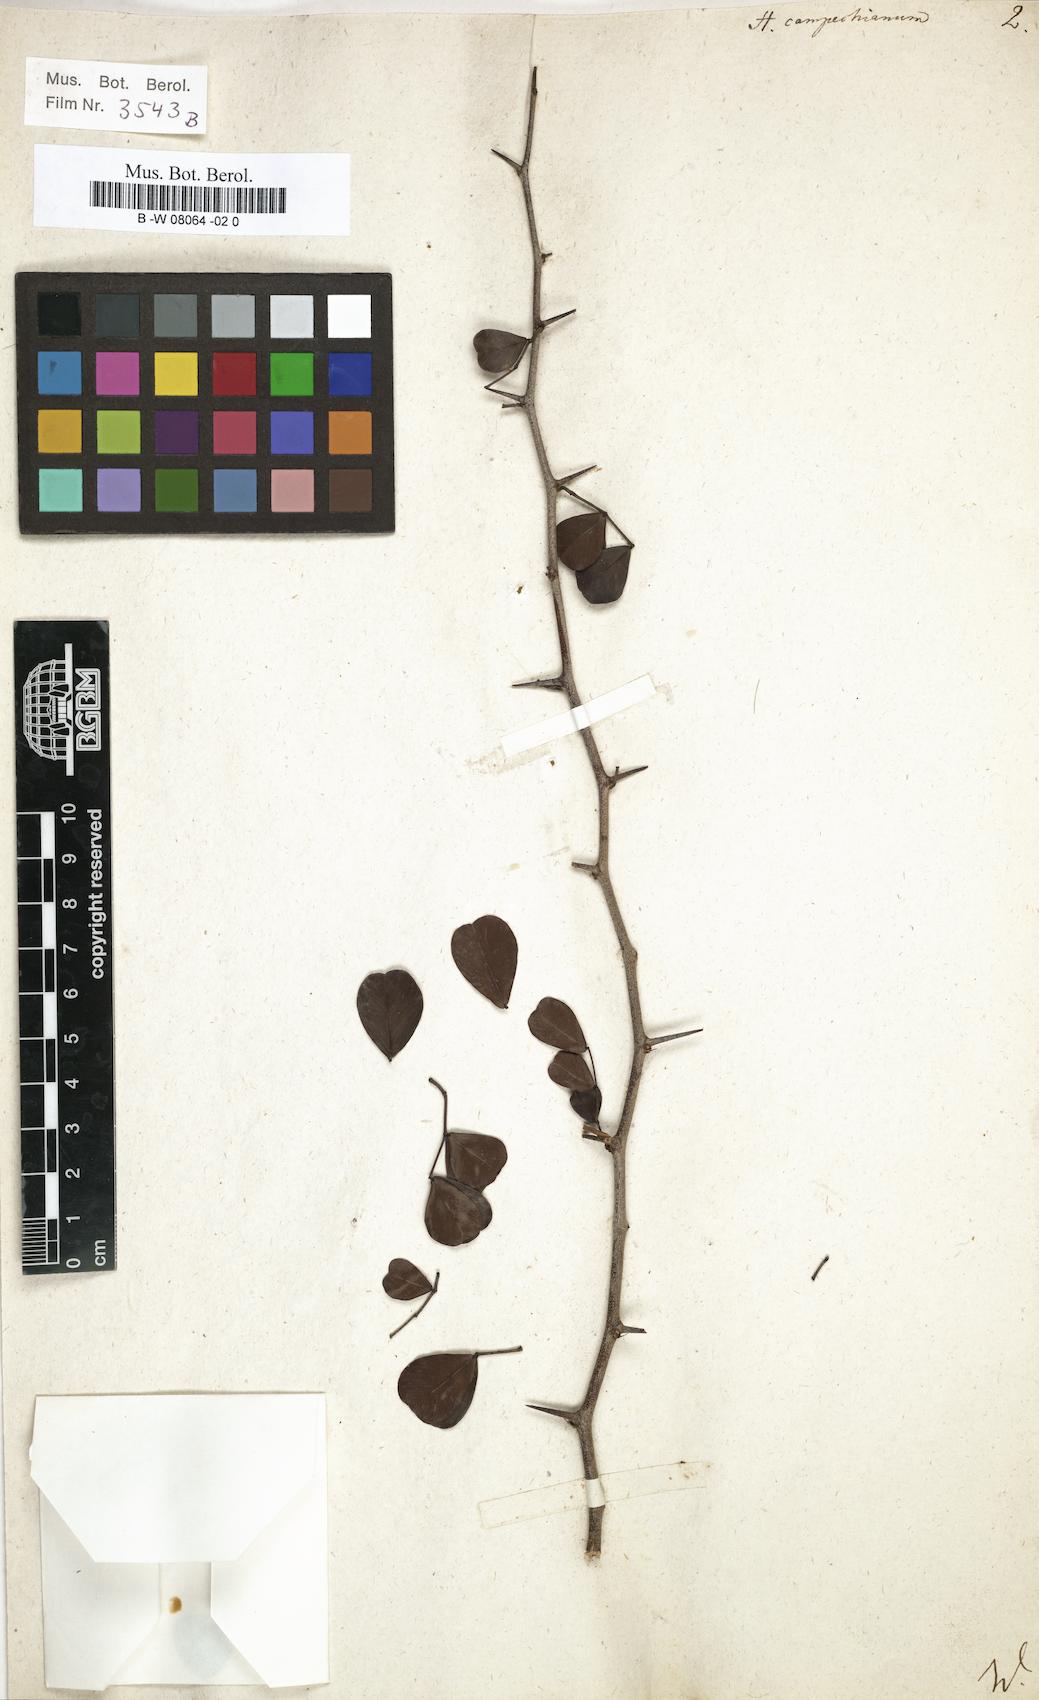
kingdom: Plantae
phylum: Tracheophyta
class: Magnoliopsida
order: Fabales
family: Fabaceae
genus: Haematoxylum
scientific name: Haematoxylum campechianum
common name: Logwood
